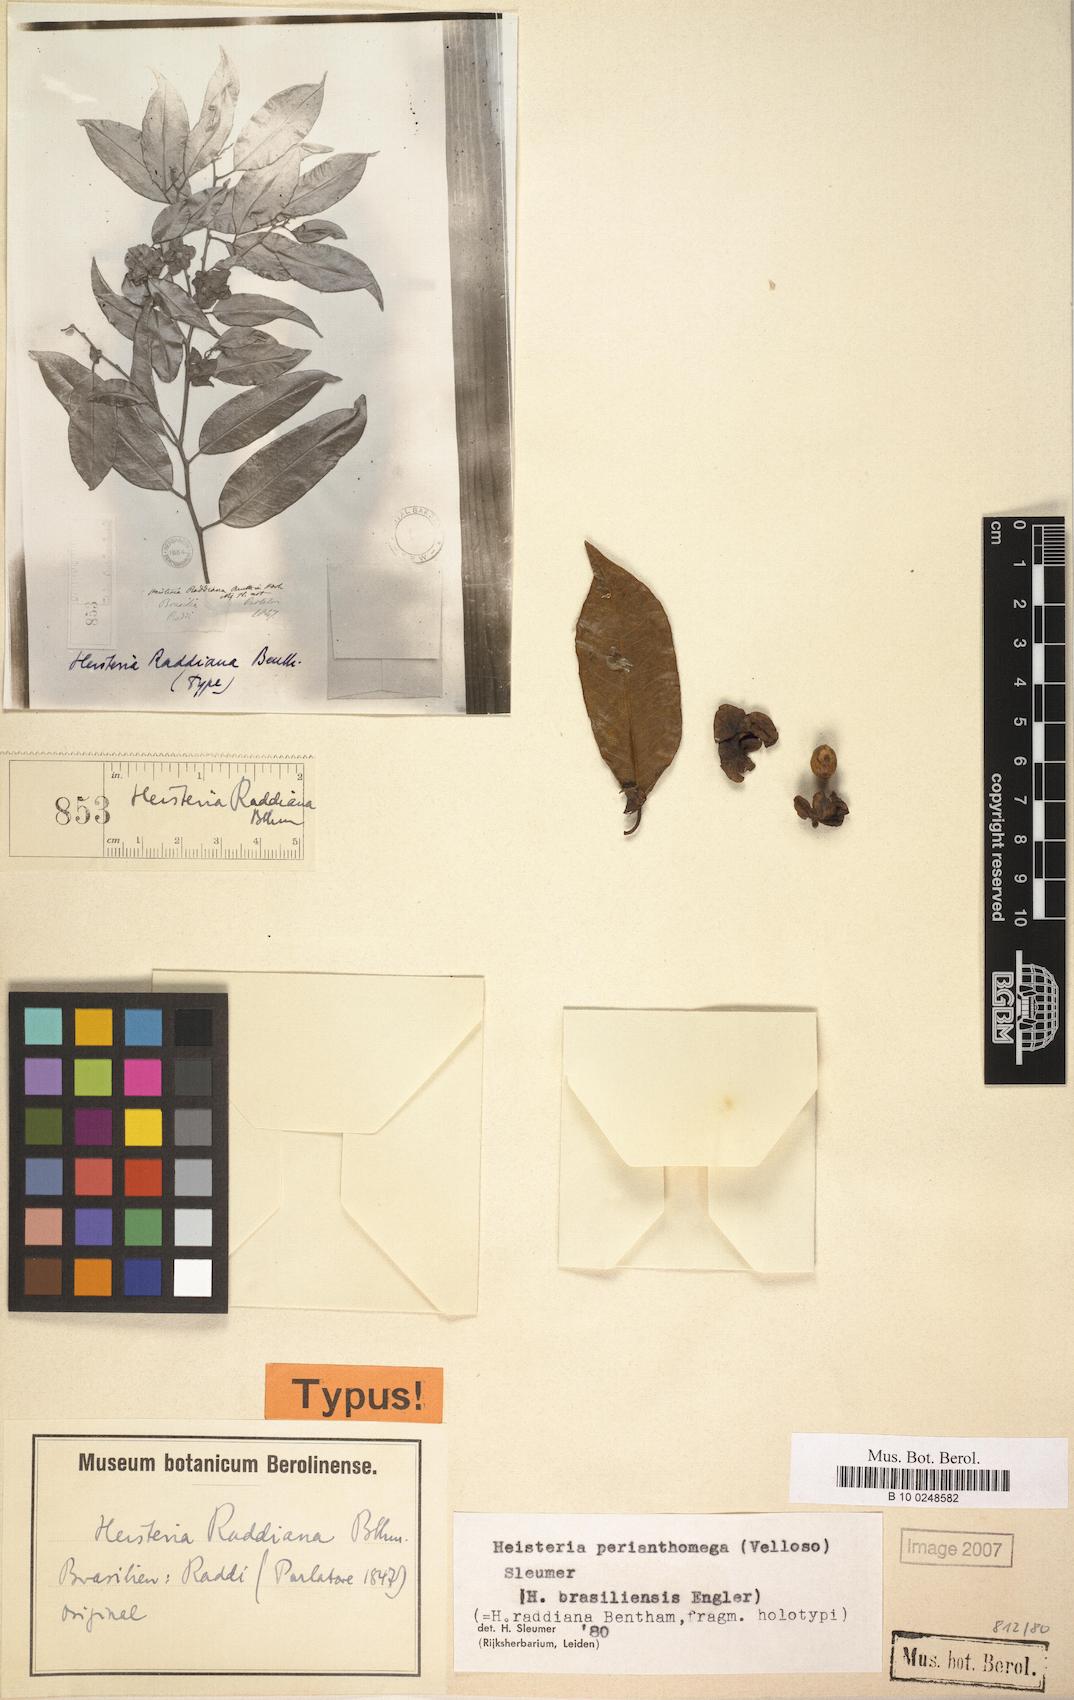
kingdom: Plantae
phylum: Tracheophyta
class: Magnoliopsida
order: Santalales
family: Erythropalaceae
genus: Heisteria
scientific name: Heisteria perianthomega
